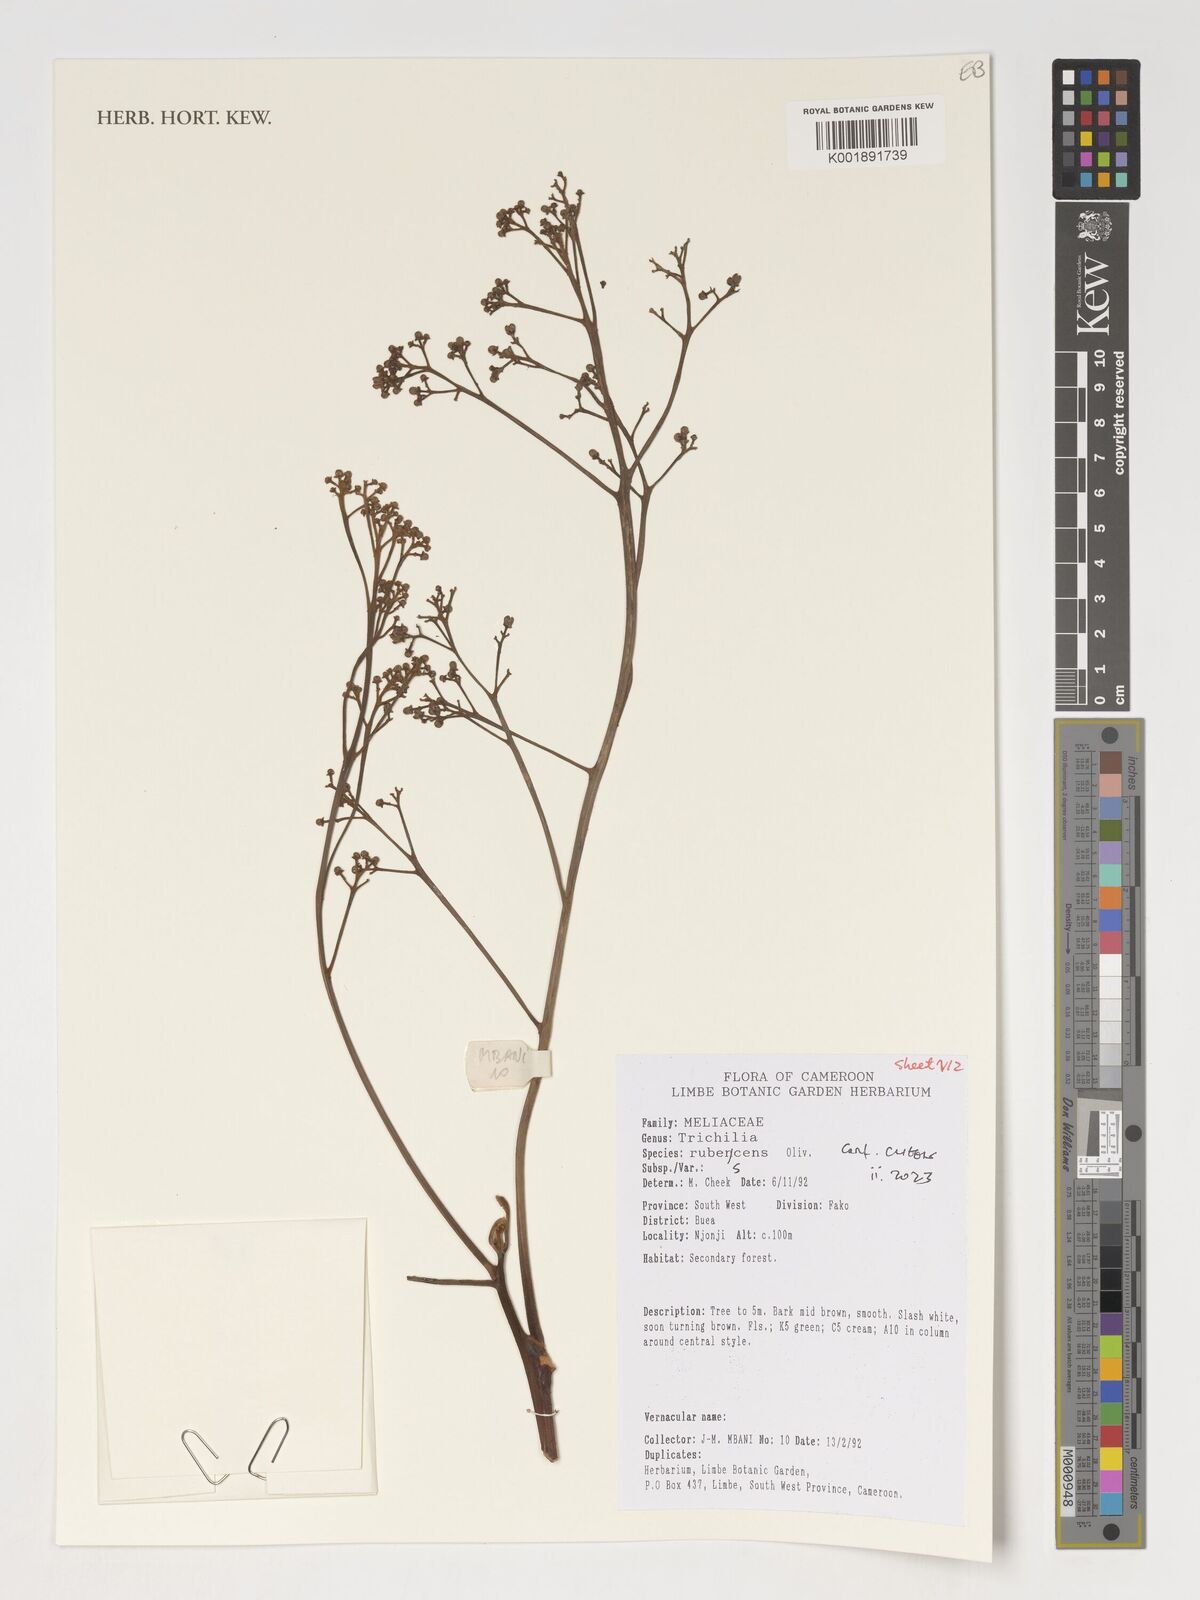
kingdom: Plantae
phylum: Tracheophyta
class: Magnoliopsida
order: Sapindales
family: Meliaceae
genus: Trichilia
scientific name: Trichilia rubescens
